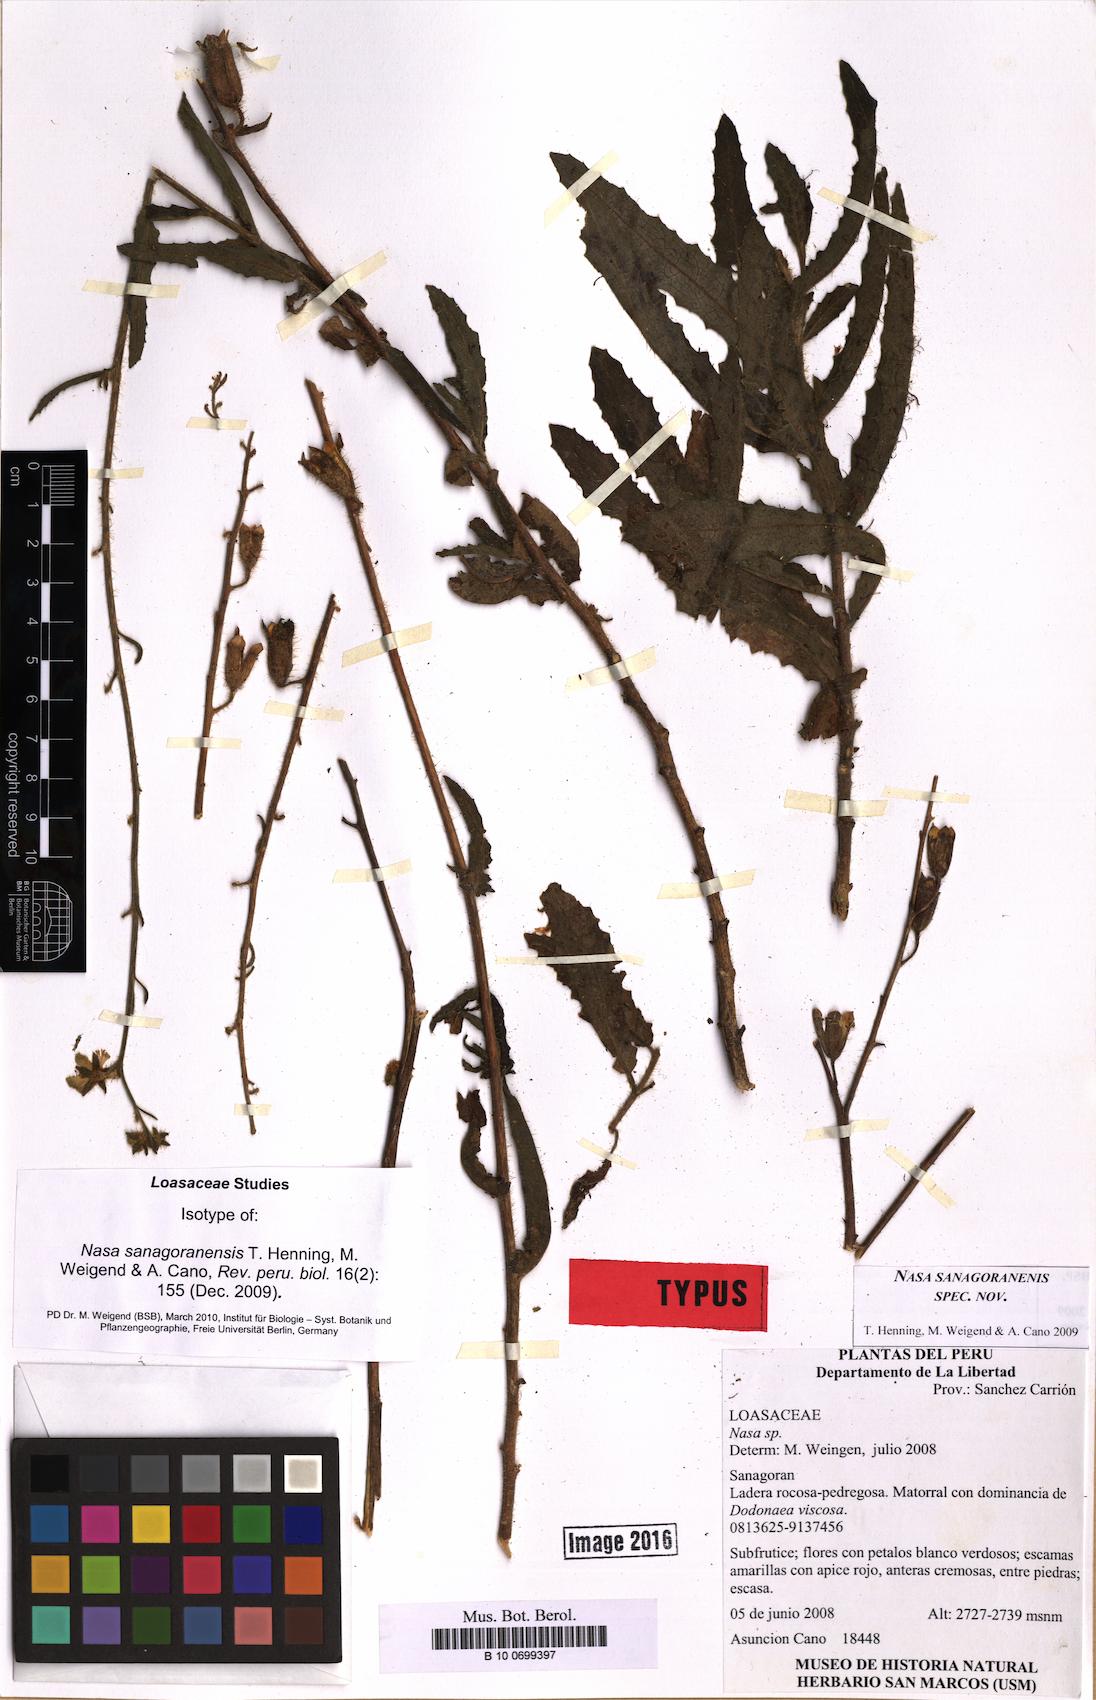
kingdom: Plantae
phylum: Tracheophyta
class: Magnoliopsida
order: Cornales
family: Loasaceae
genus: Nasa
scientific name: Nasa sanagoranensis
